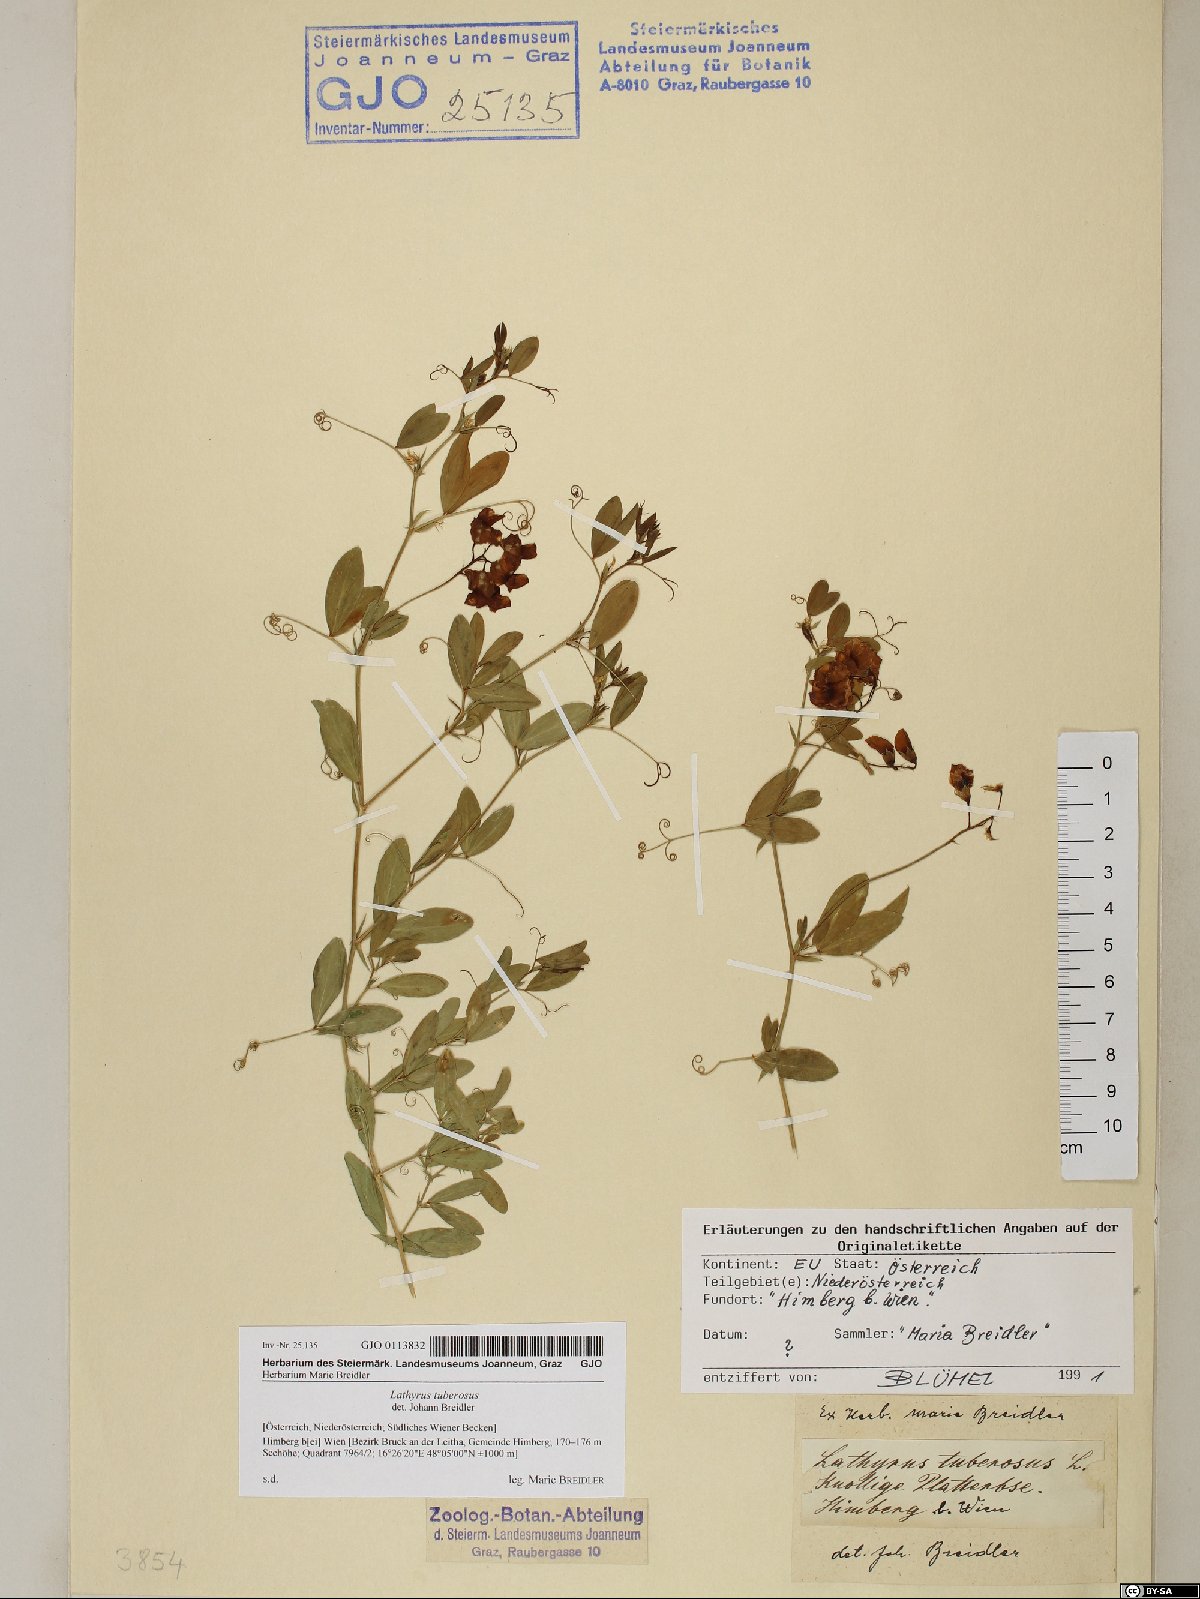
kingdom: Plantae
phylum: Tracheophyta
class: Magnoliopsida
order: Fabales
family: Fabaceae
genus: Lathyrus
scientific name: Lathyrus tuberosus
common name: Tuberous pea
